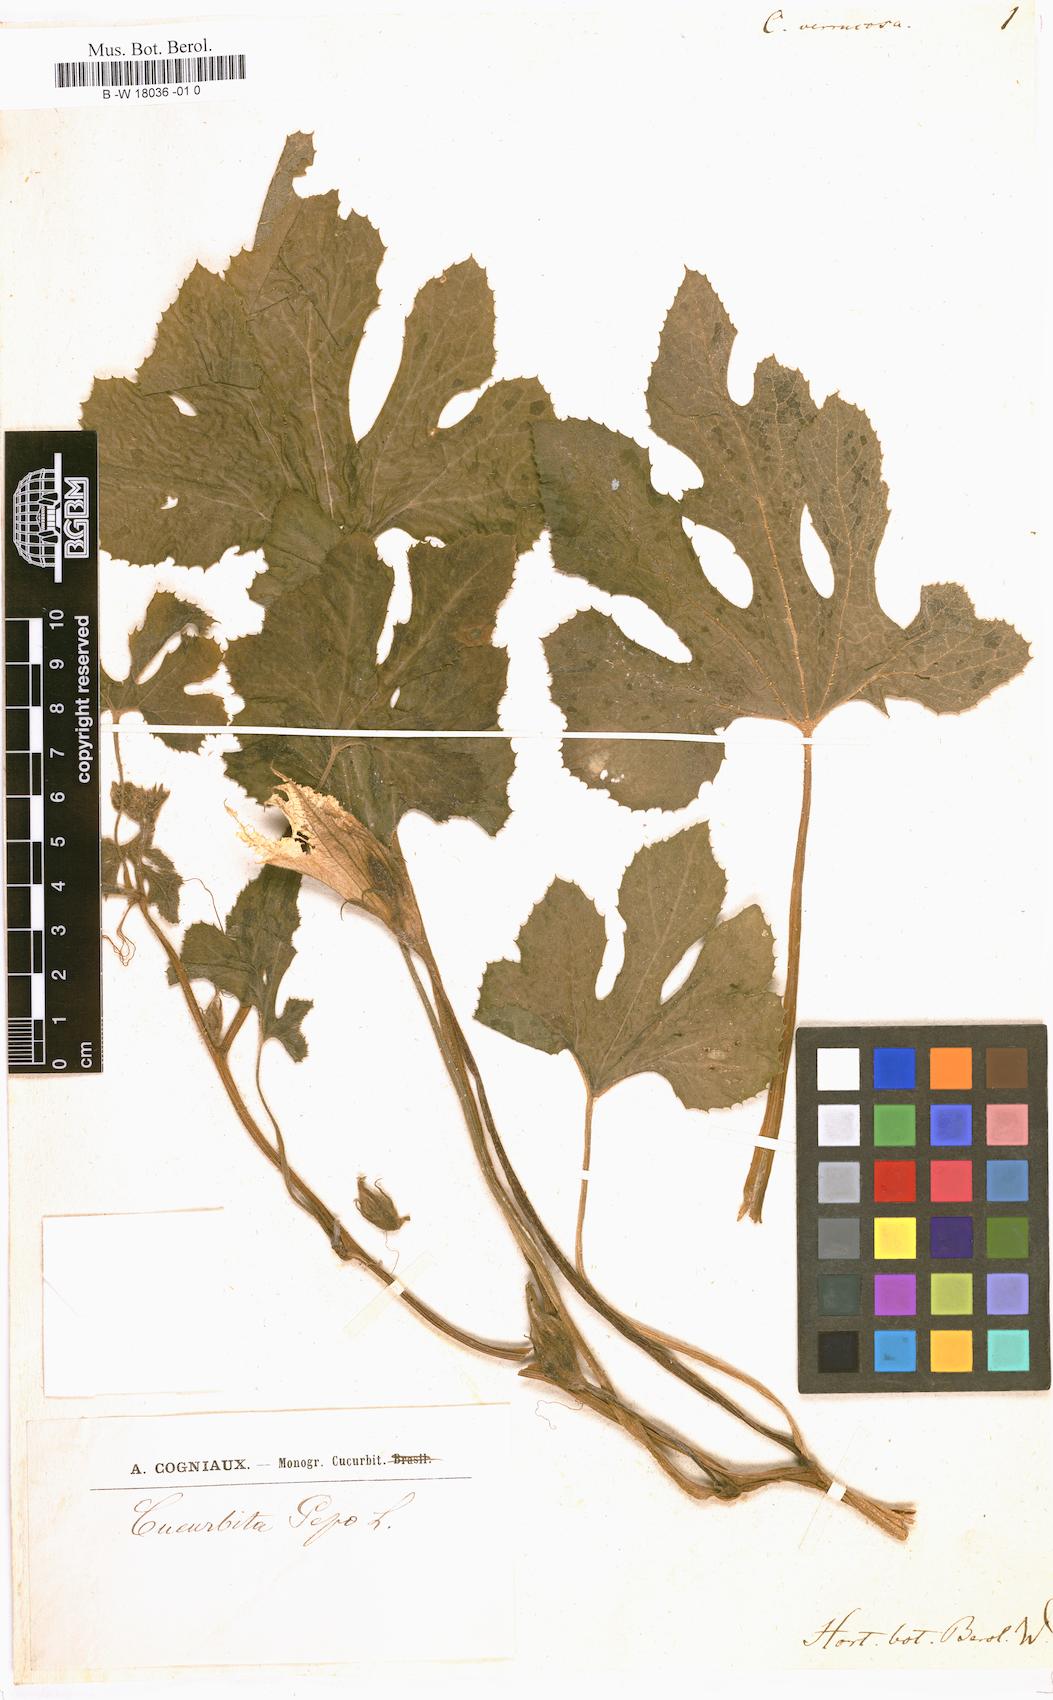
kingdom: Plantae
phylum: Tracheophyta
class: Magnoliopsida
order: Cucurbitales
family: Cucurbitaceae
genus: Cucurbita
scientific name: Cucurbita melopepo
